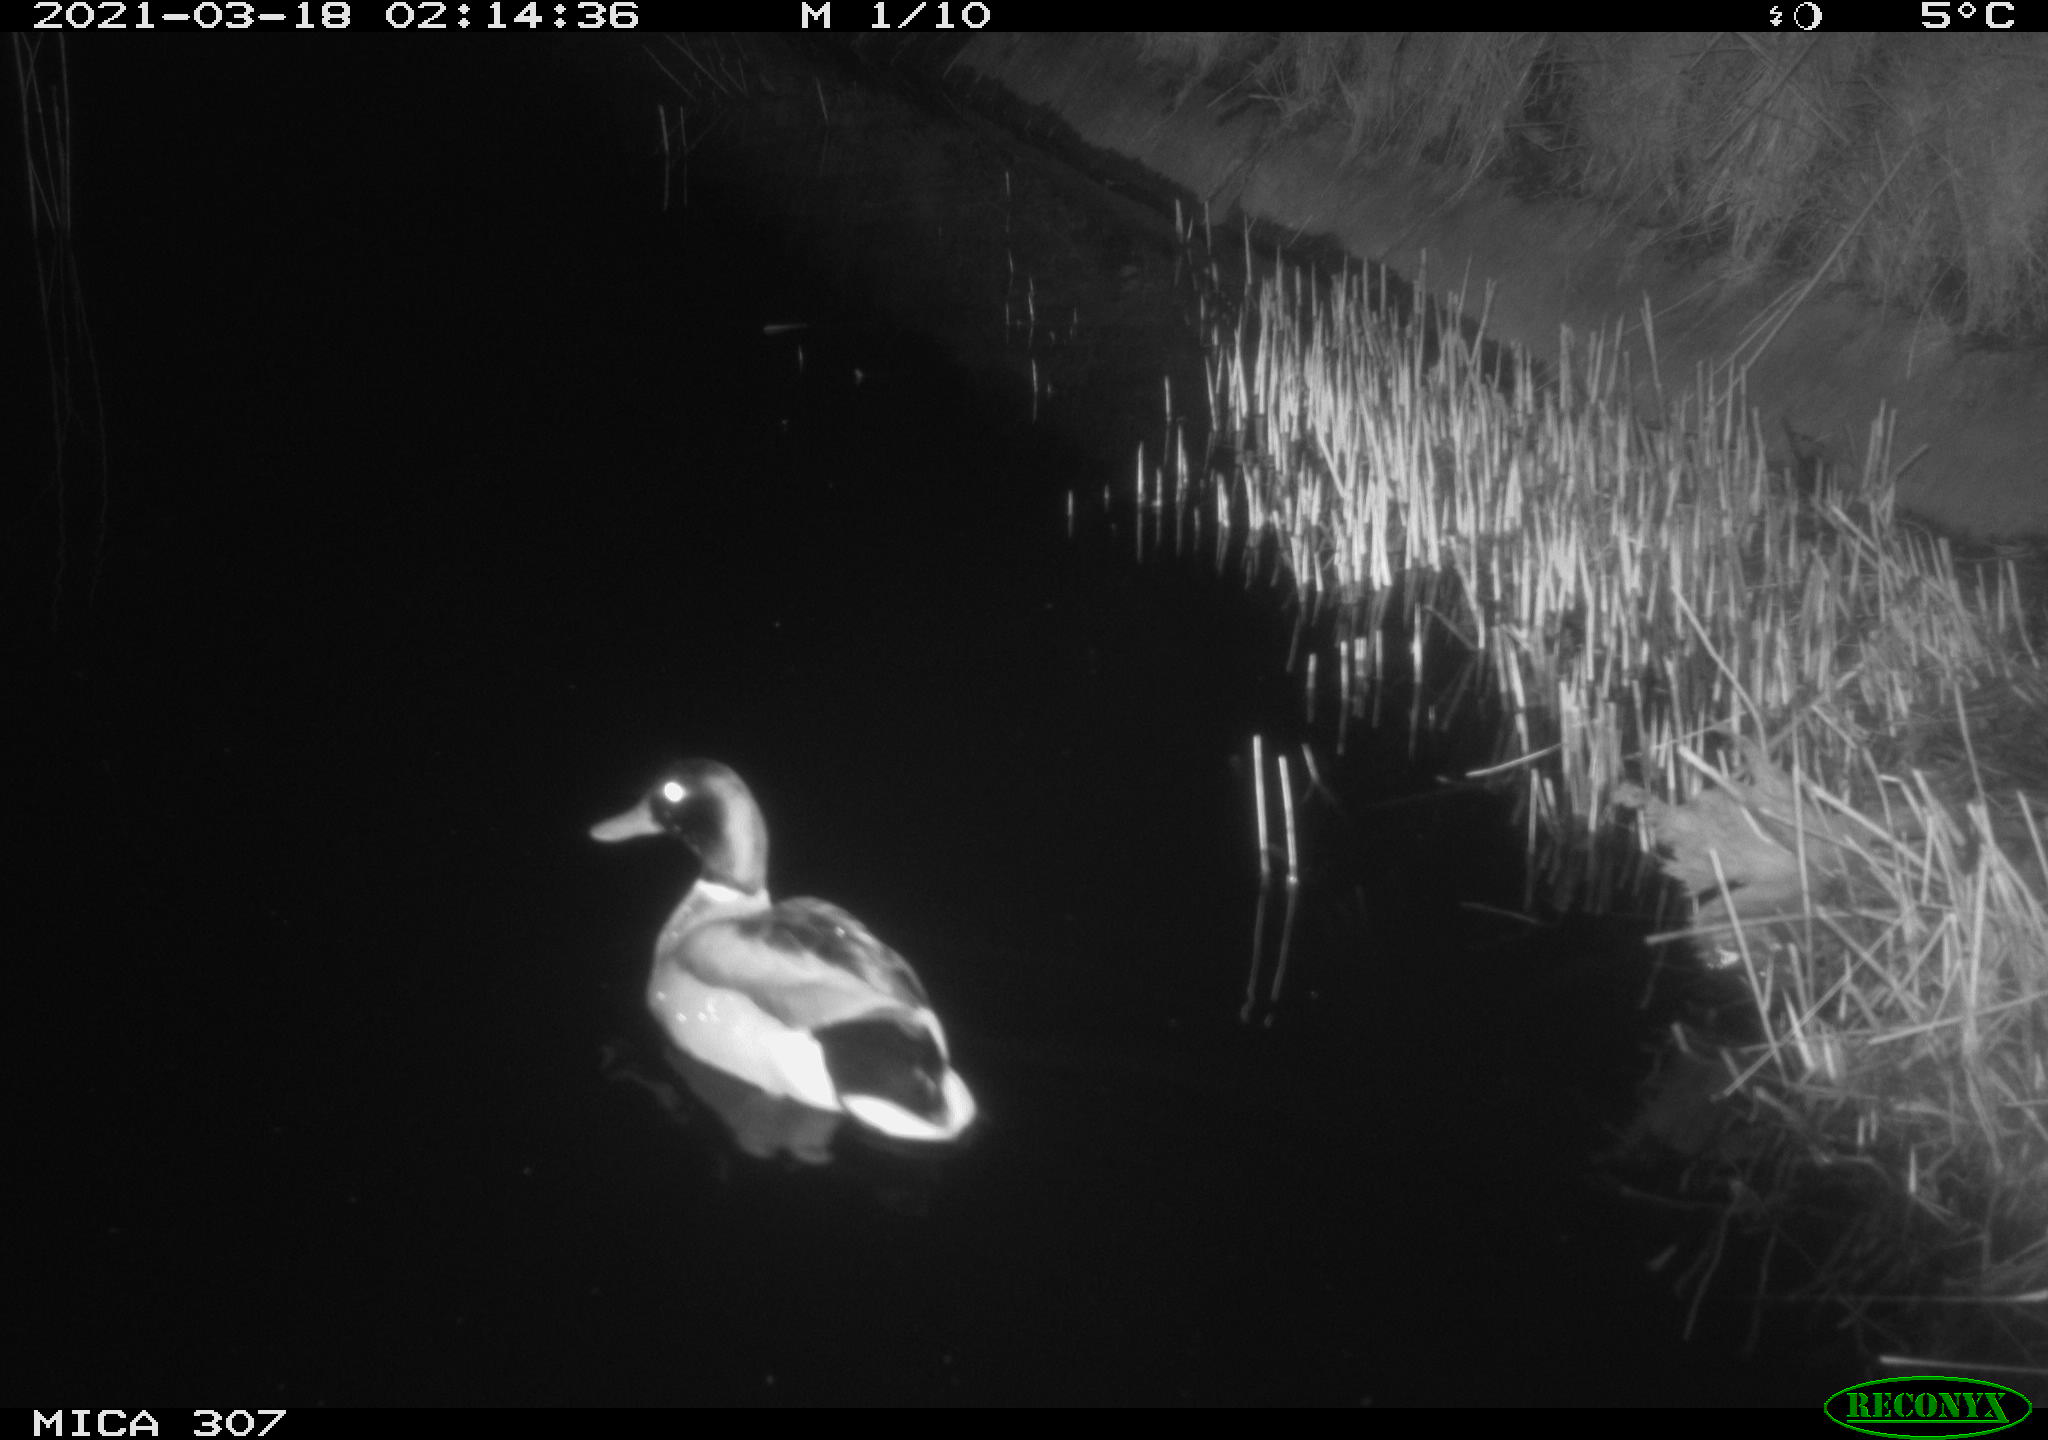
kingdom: Animalia
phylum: Chordata
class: Aves
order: Anseriformes
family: Anatidae
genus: Anas
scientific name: Anas platyrhynchos
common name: Mallard
